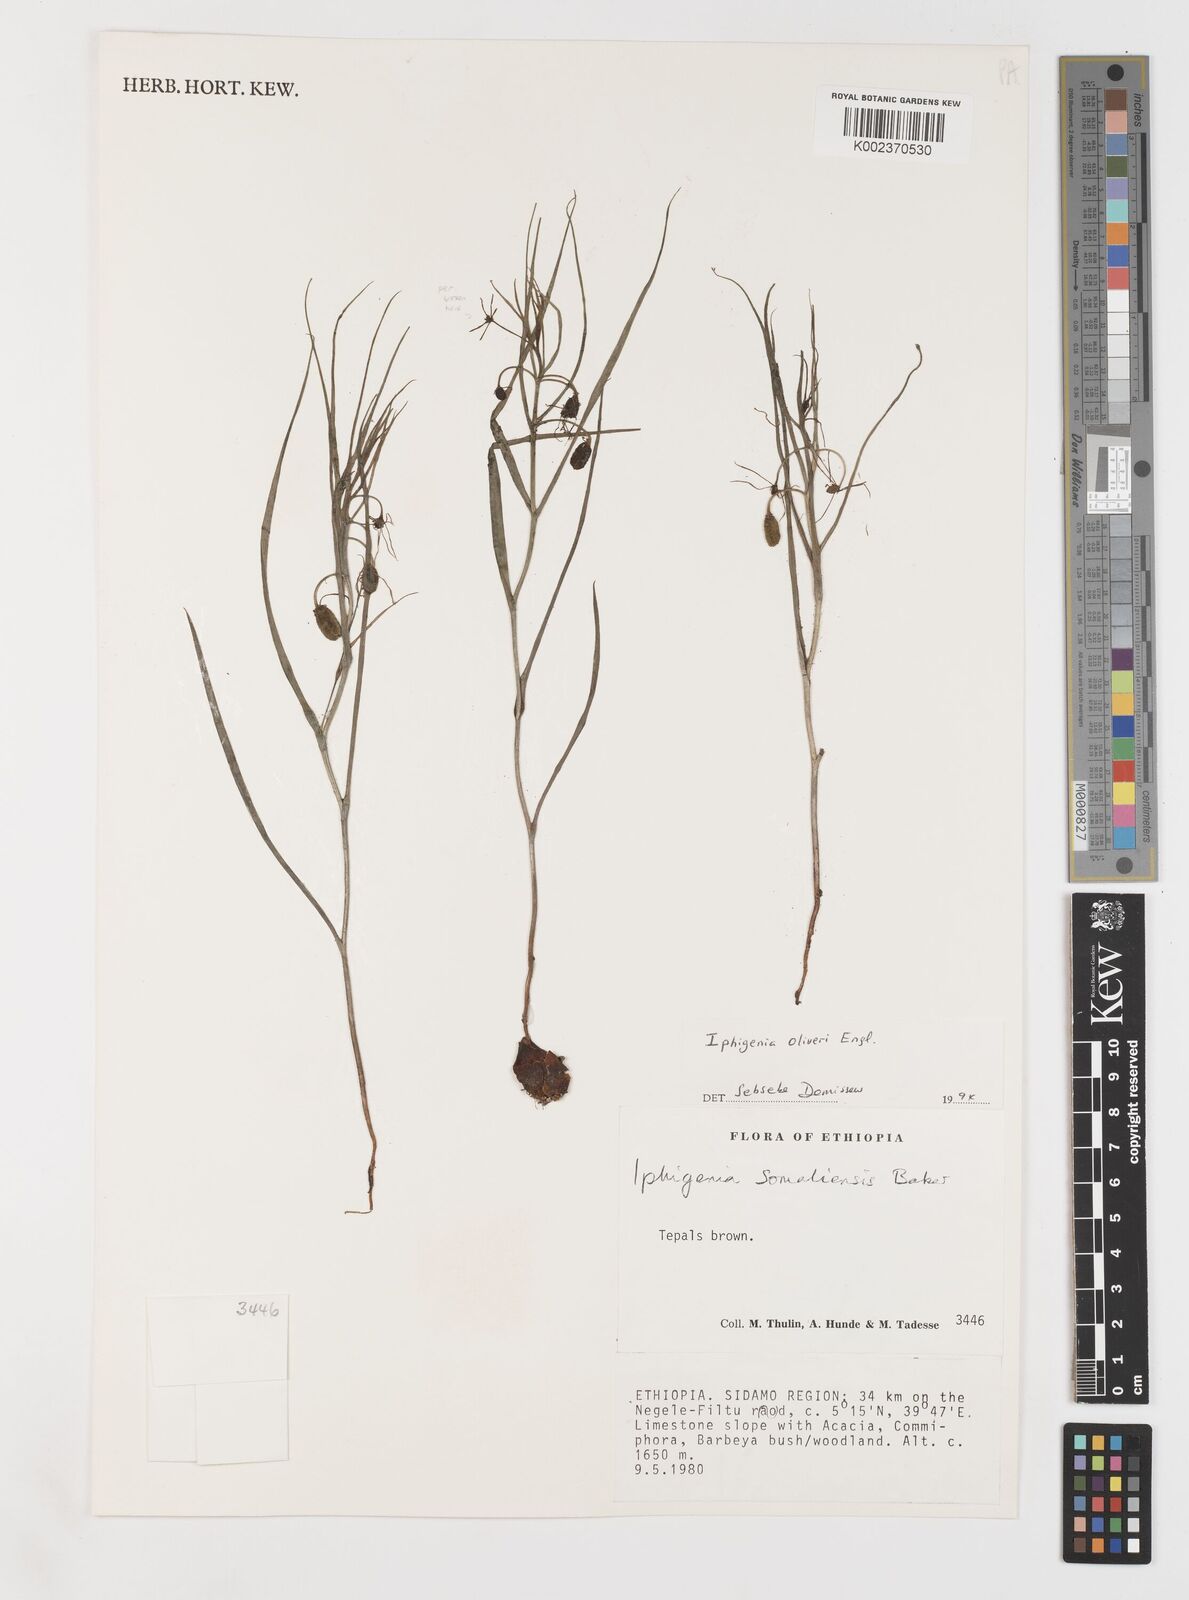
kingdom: Plantae
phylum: Tracheophyta
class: Liliopsida
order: Liliales
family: Colchicaceae
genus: Iphigenia
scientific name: Iphigenia oliveri
